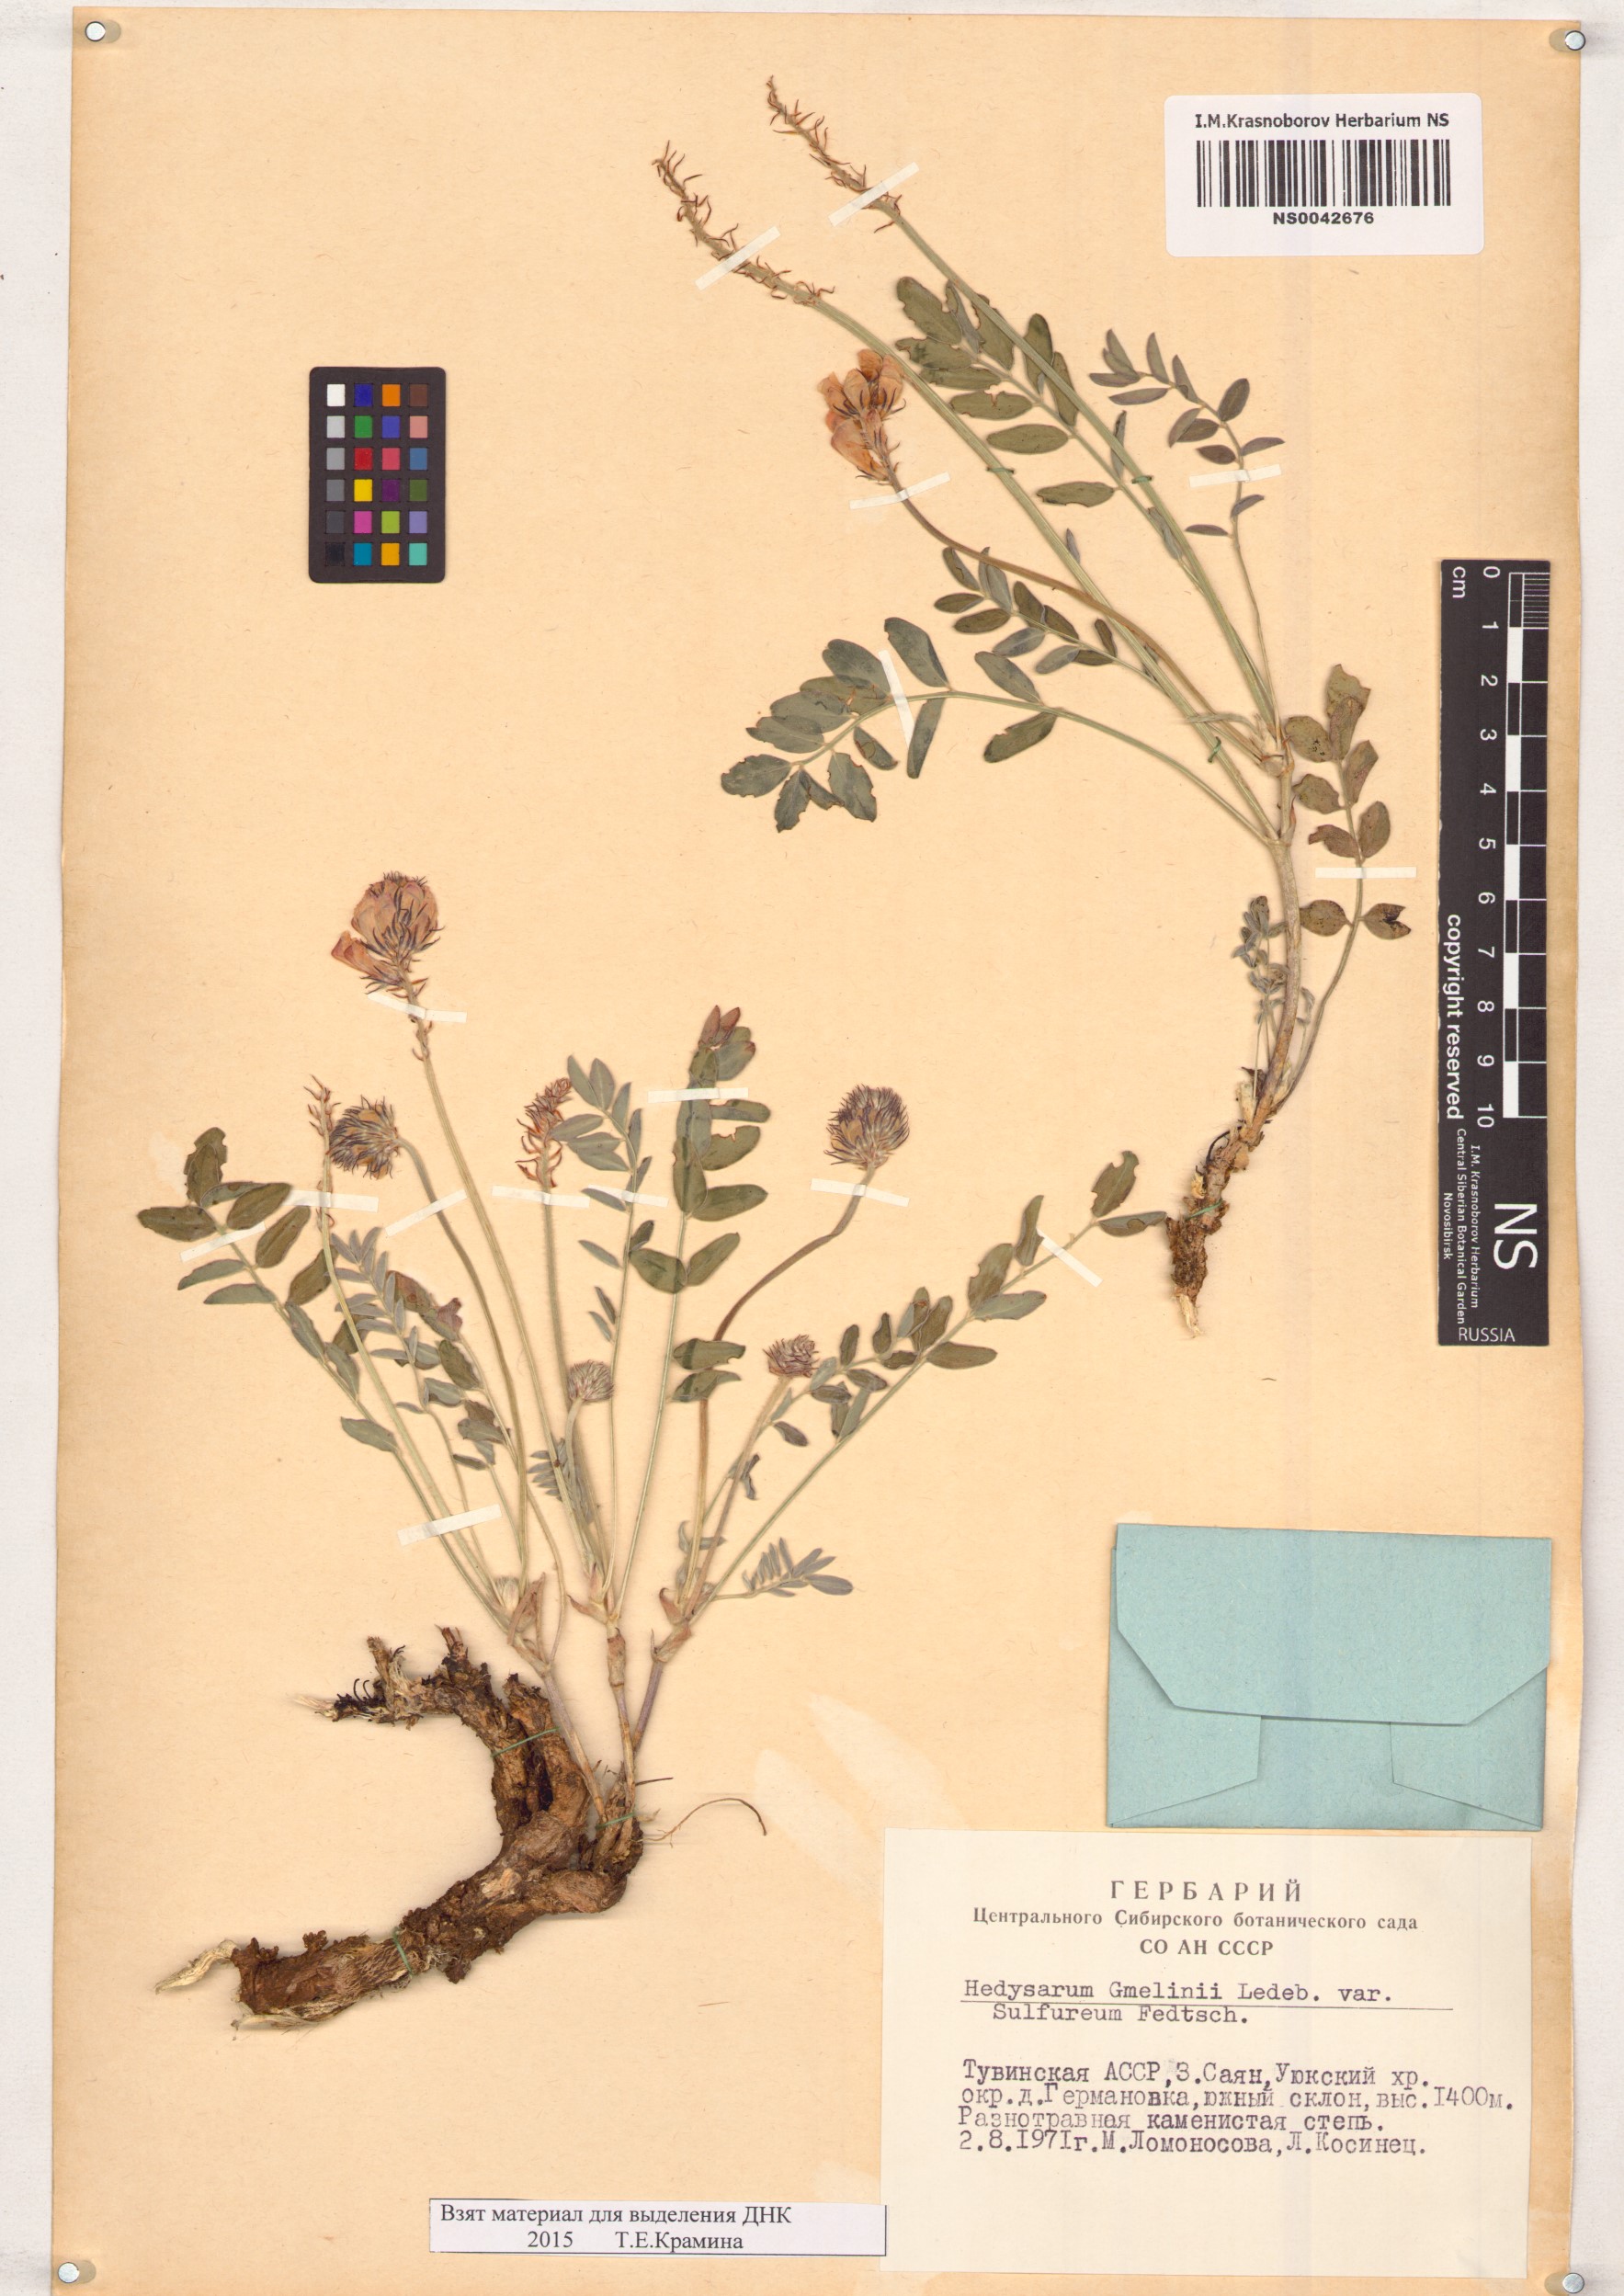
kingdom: Plantae
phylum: Tracheophyta
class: Magnoliopsida
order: Fabales
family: Fabaceae
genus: Hedysarum
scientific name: Hedysarum gmelinii
